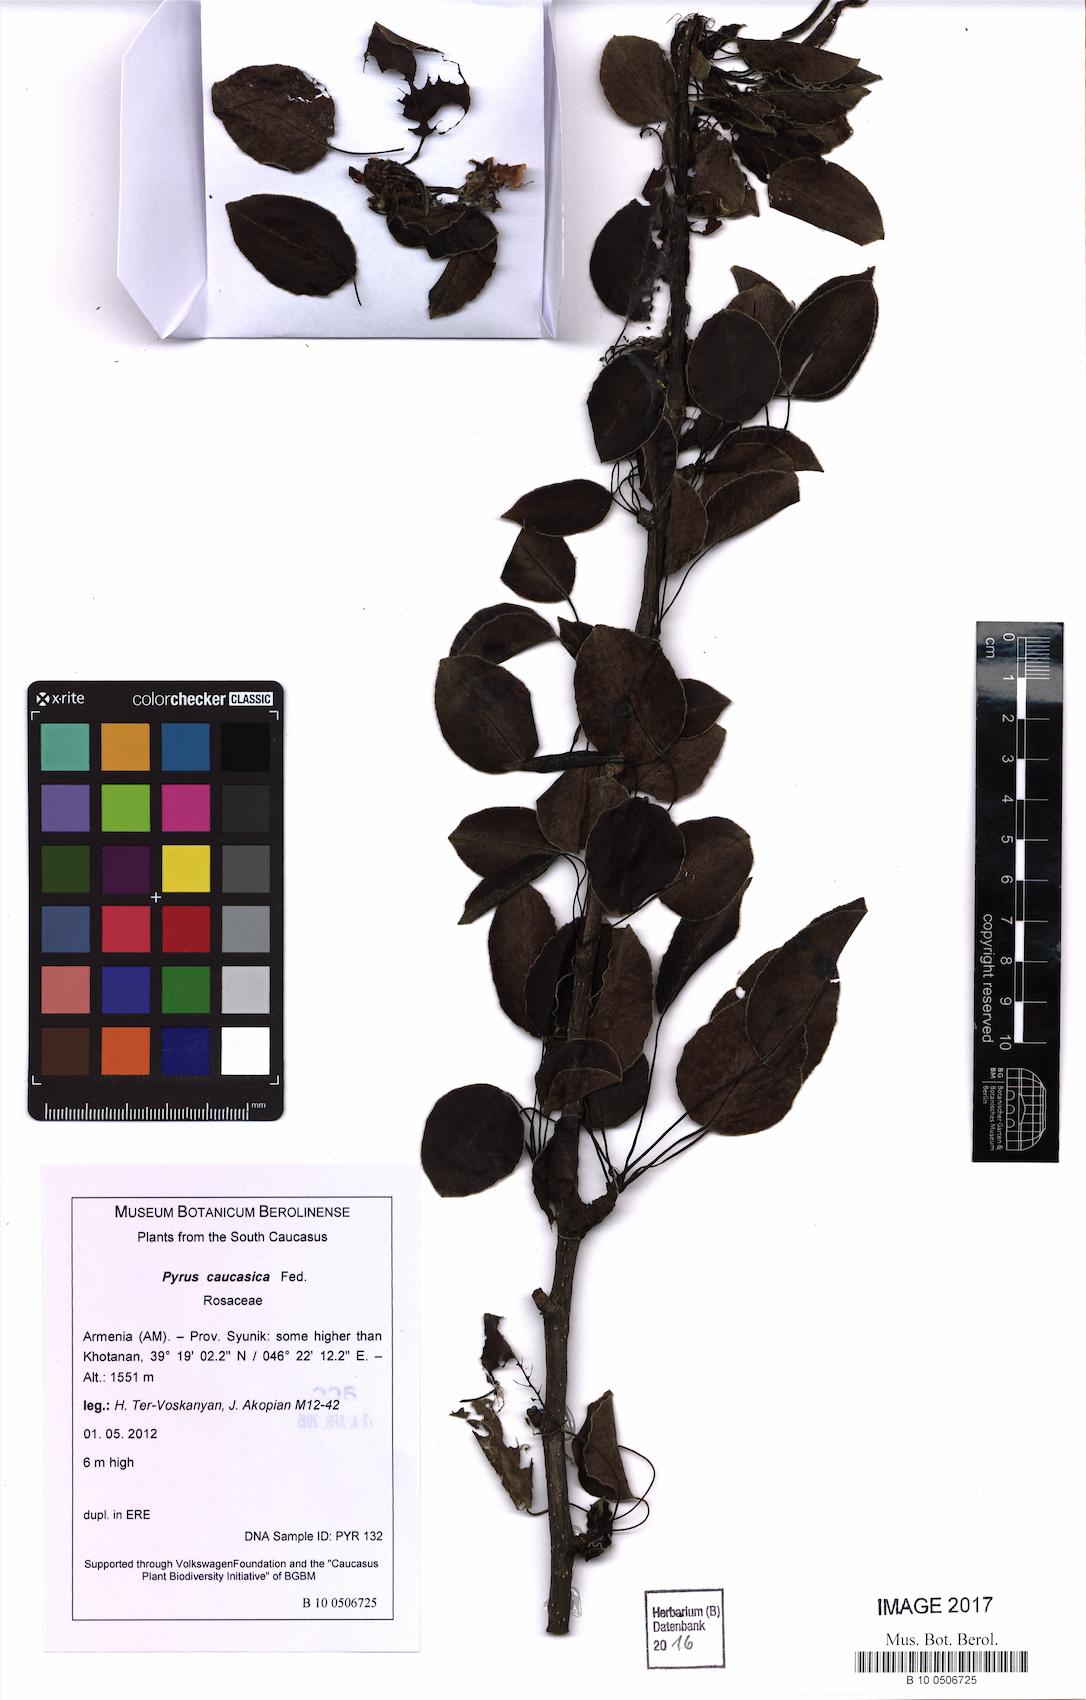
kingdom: Plantae
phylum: Tracheophyta
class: Magnoliopsida
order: Rosales
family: Rosaceae
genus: Pyrus
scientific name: Pyrus communis
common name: Pear
